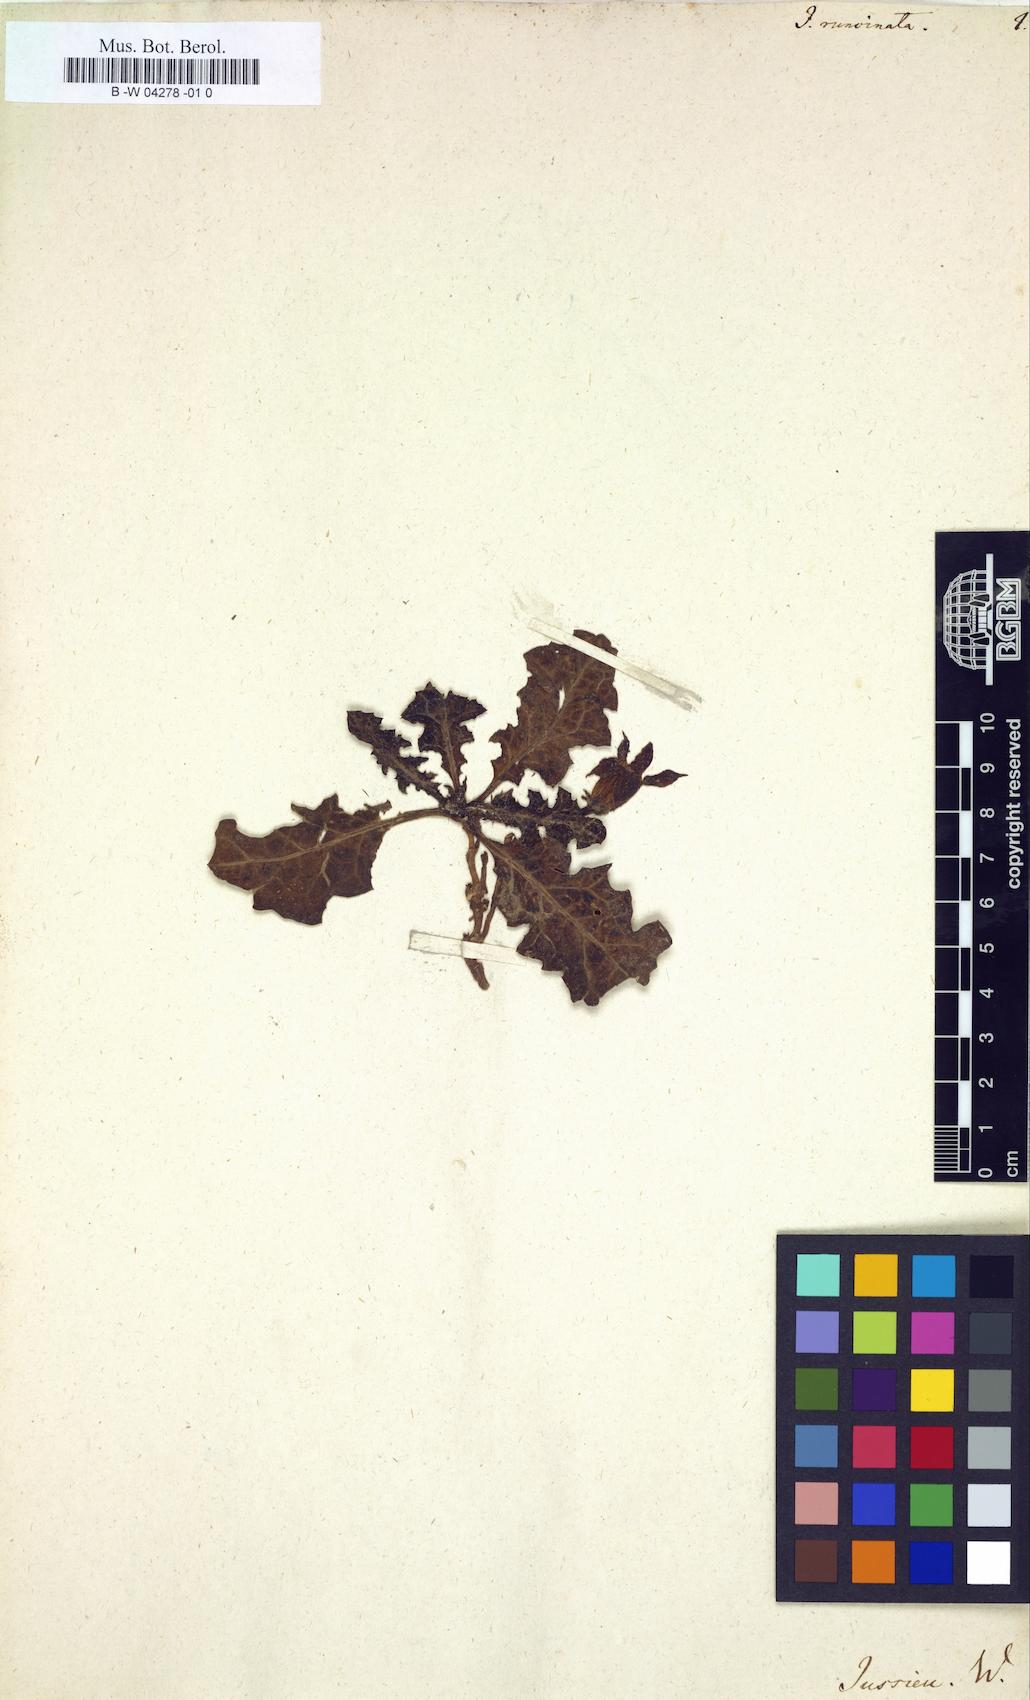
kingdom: Plantae
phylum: Tracheophyta
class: Magnoliopsida
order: Solanales
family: Solanaceae
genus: Jaborosa
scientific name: Jaborosa runcinata
